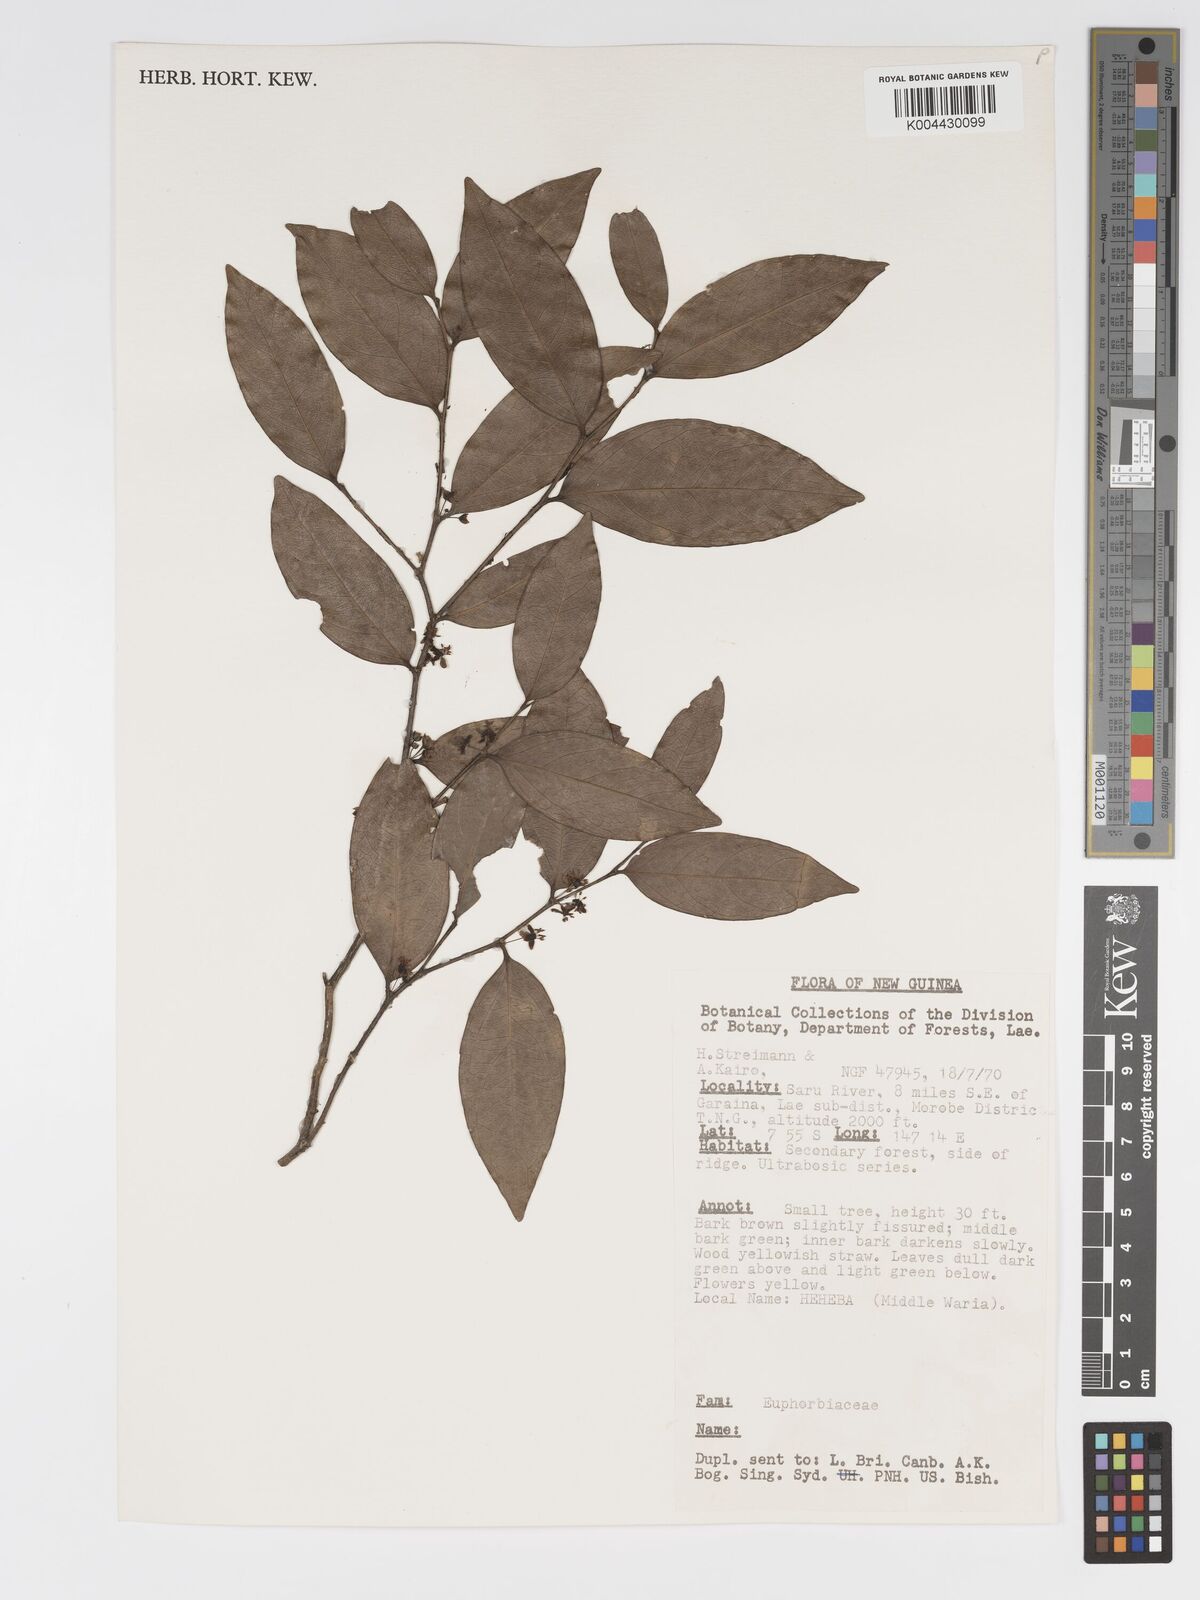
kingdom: Plantae
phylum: Tracheophyta
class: Magnoliopsida
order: Malpighiales
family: Putranjivaceae
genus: Drypetes
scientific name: Drypetes lasiogynoides
